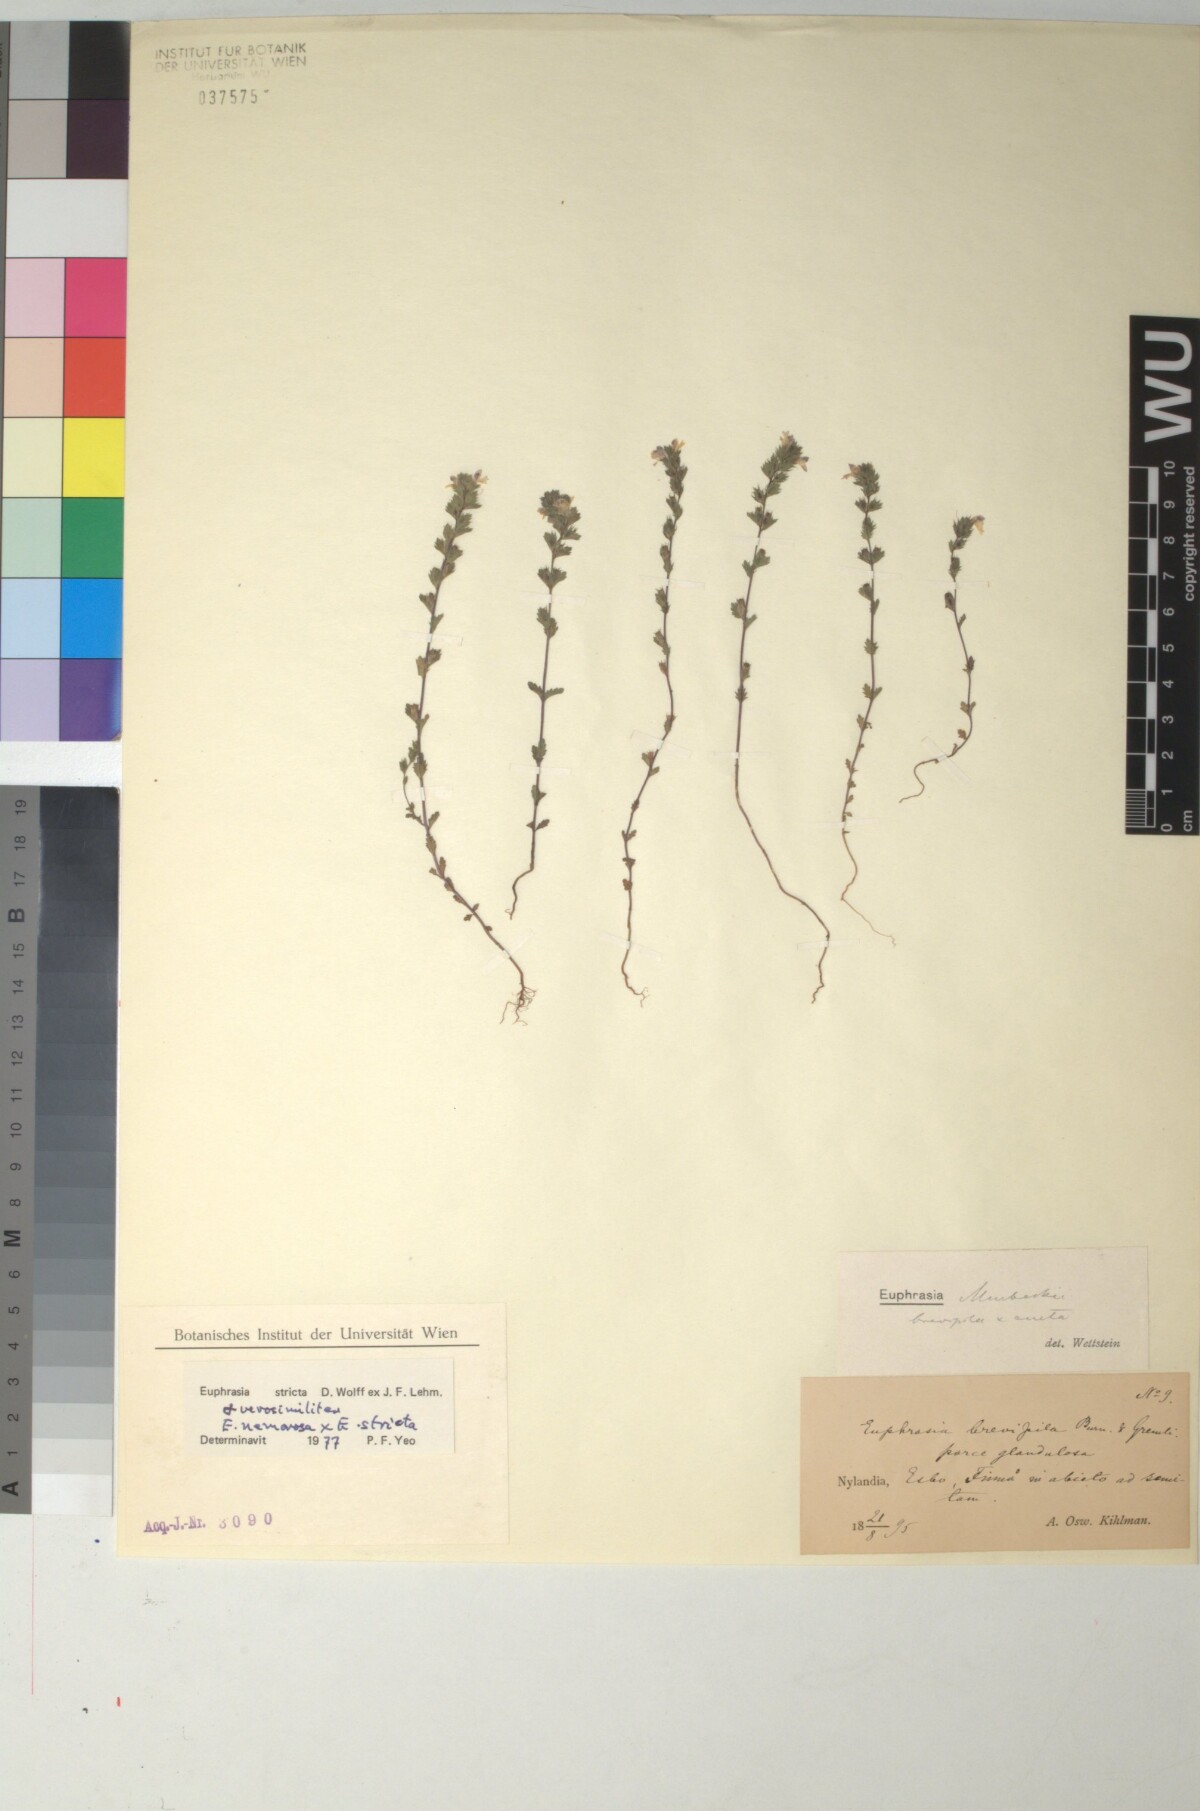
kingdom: Plantae
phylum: Tracheophyta
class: Magnoliopsida
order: Lamiales
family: Scrophulariaceae
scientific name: Scrophulariaceae
